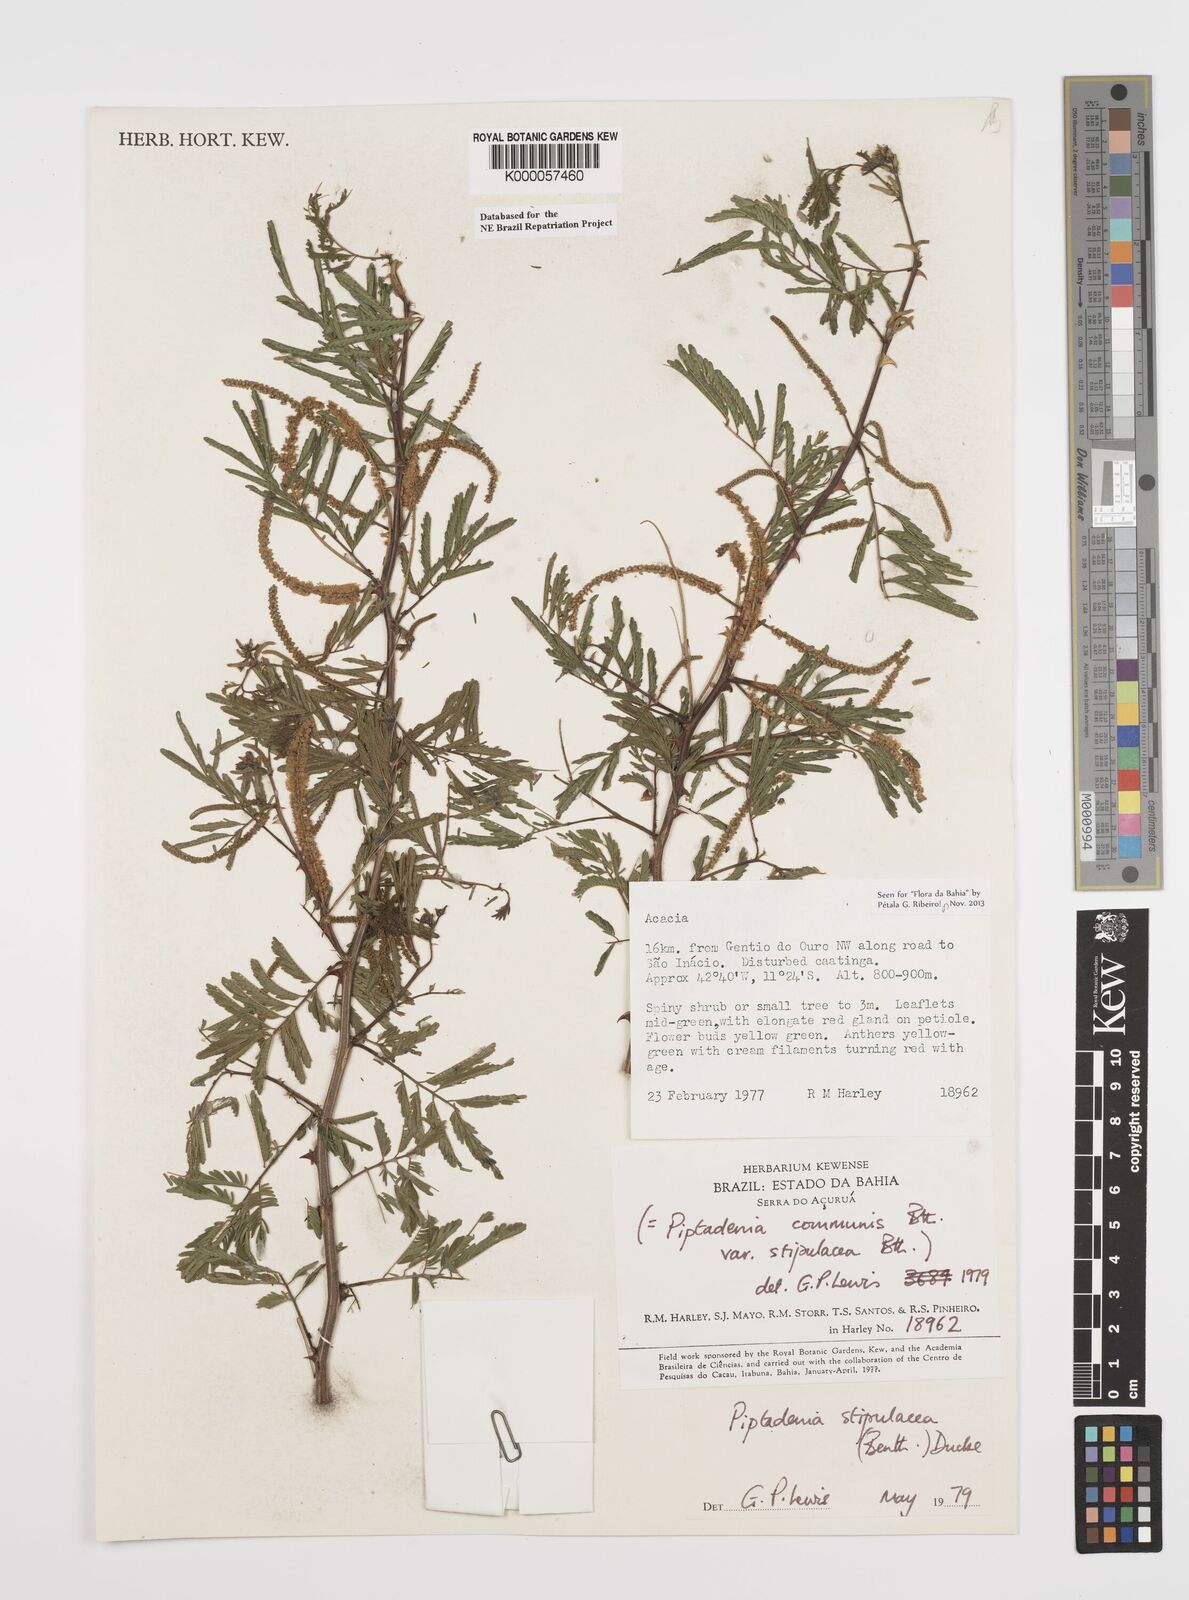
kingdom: Plantae
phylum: Tracheophyta
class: Magnoliopsida
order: Fabales
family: Fabaceae
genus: Piptadenia
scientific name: Piptadenia retusa
